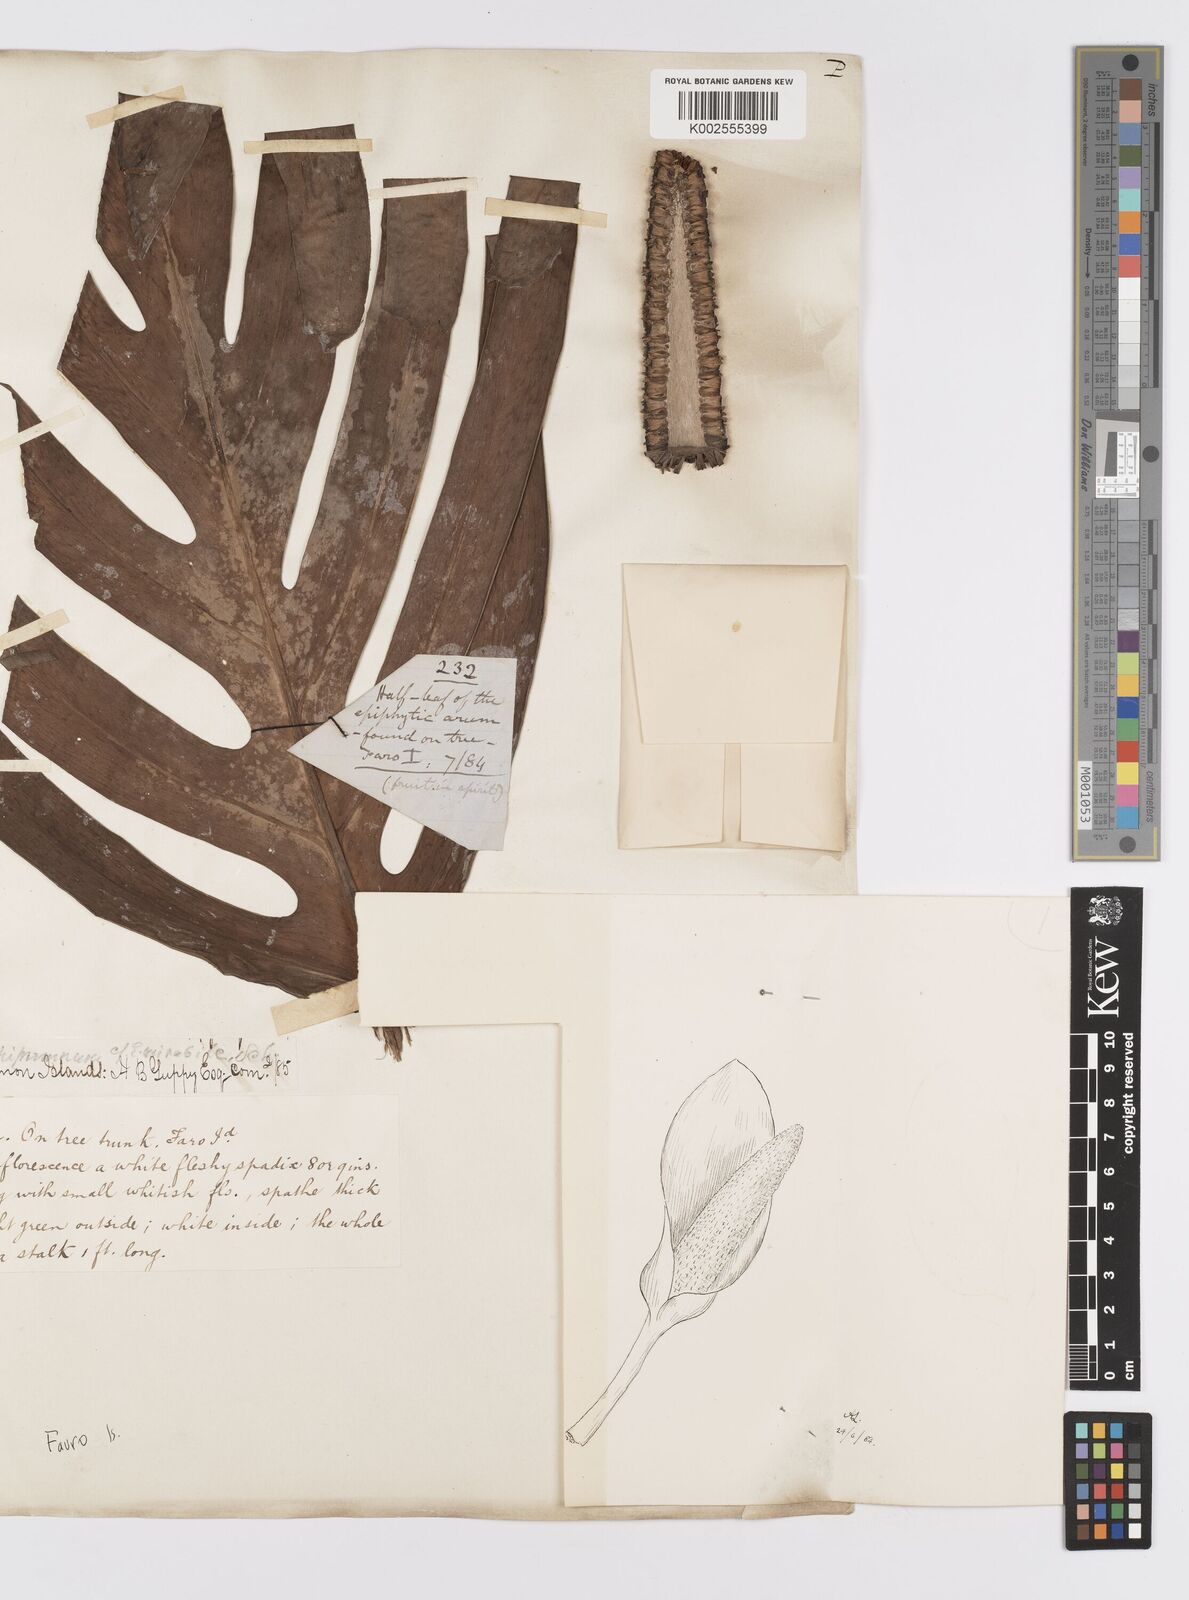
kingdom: Plantae
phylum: Tracheophyta
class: Liliopsida
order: Alismatales
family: Araceae
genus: Epipremnum
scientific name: Epipremnum
